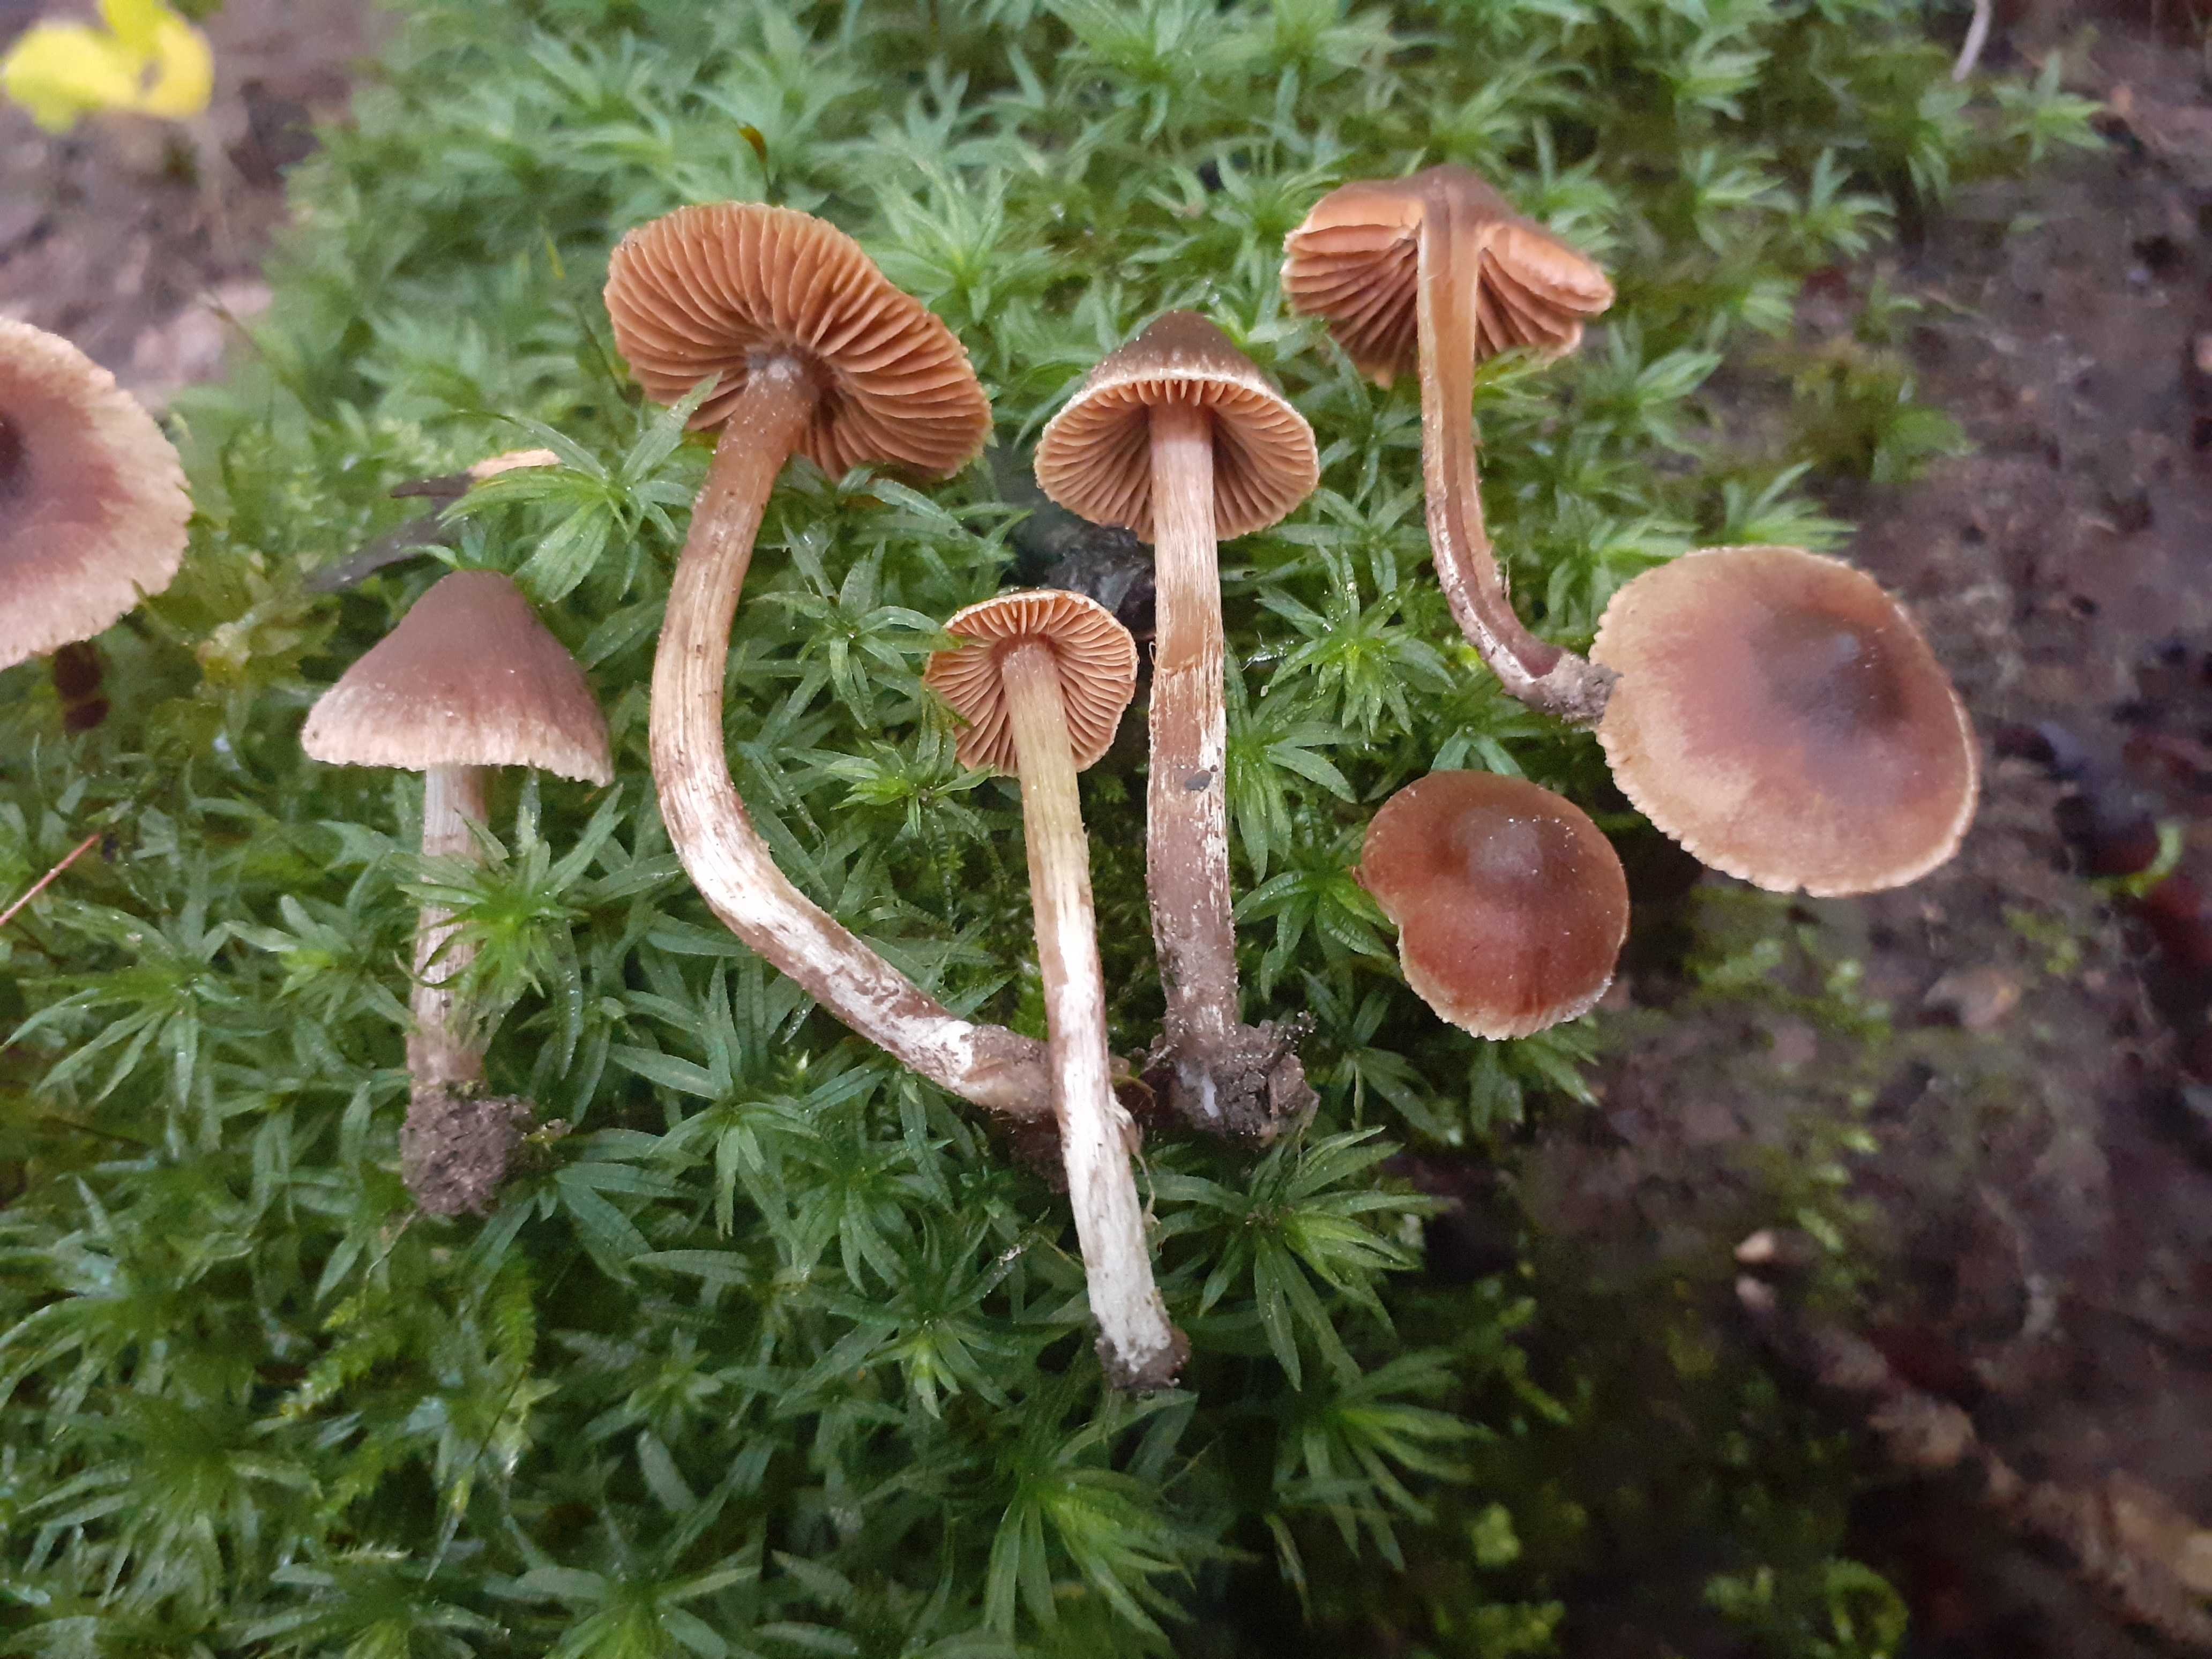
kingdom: Fungi
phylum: Basidiomycota
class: Agaricomycetes
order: Agaricales
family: Cortinariaceae
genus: Cortinarius
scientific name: Cortinarius megacystidiosus
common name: lavbæltet slørhat
